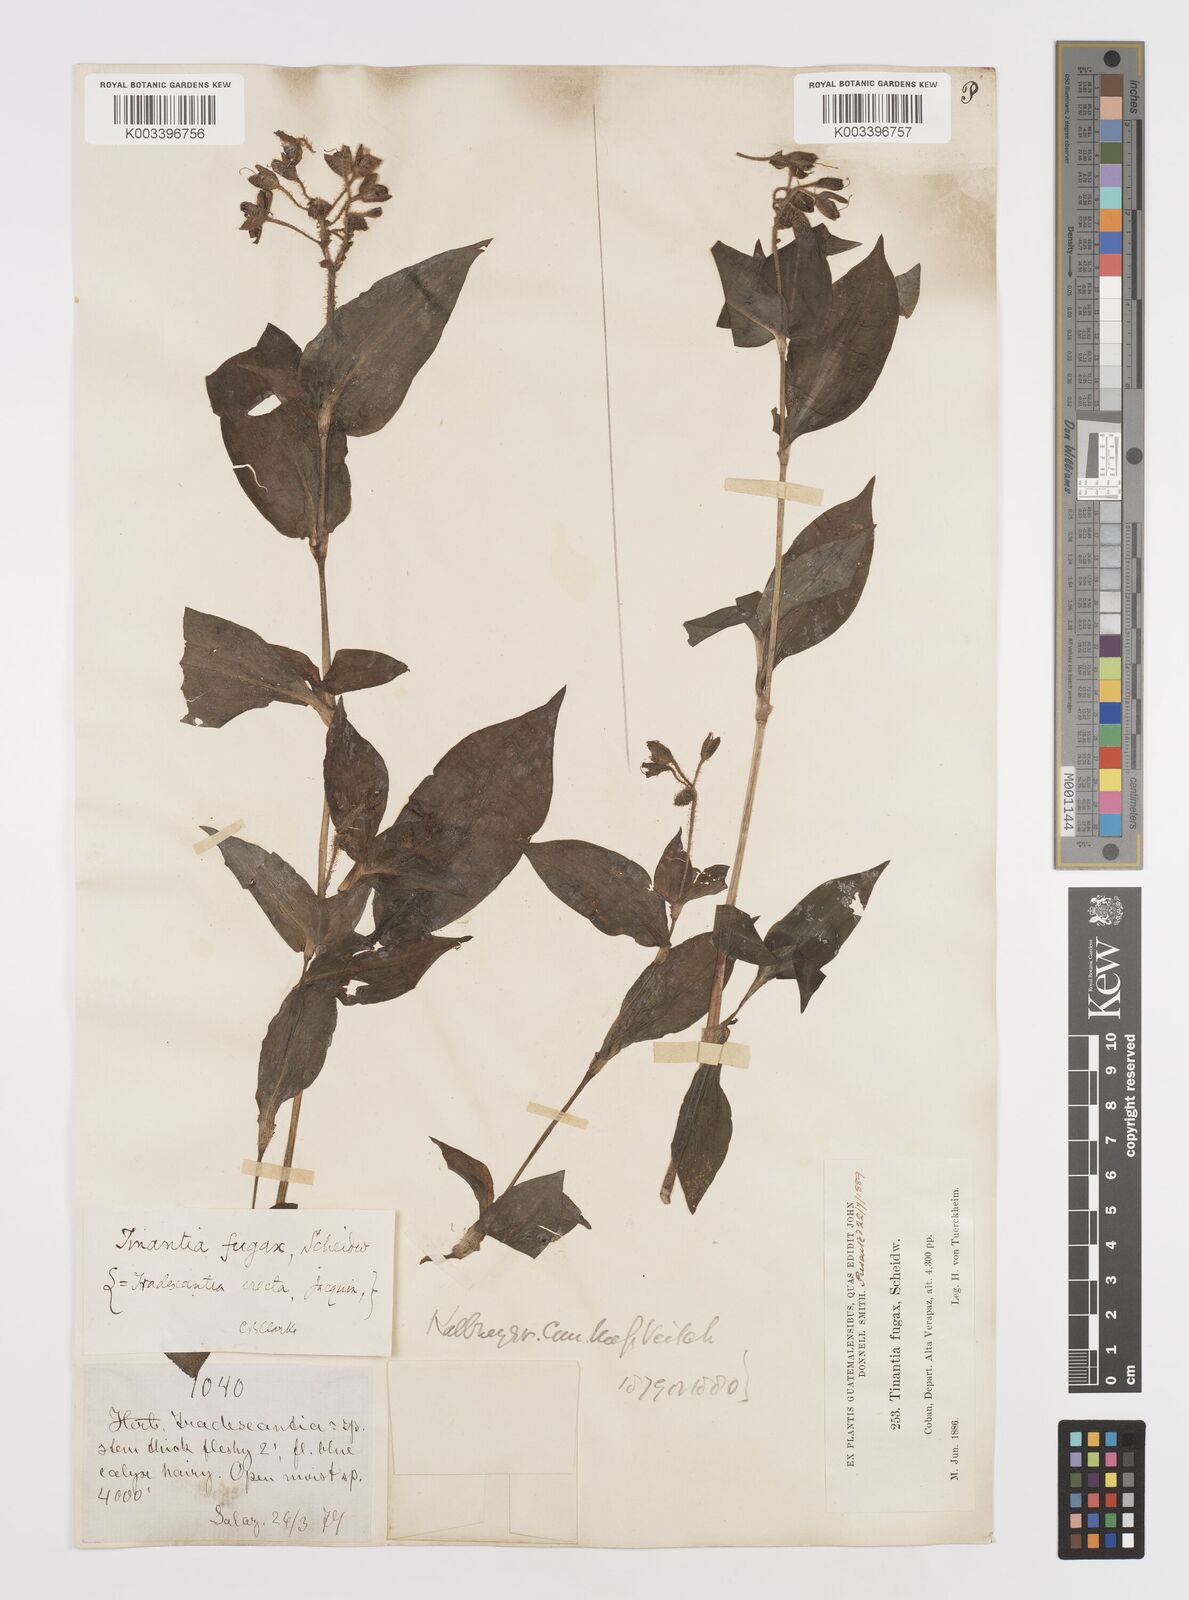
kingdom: Plantae
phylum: Tracheophyta
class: Liliopsida
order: Commelinales
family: Commelinaceae
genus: Tinantia
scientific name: Tinantia erecta
